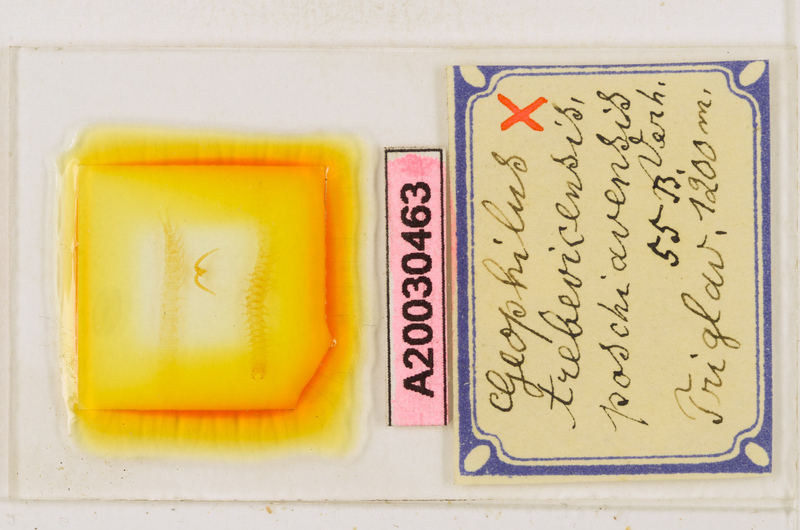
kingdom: Animalia
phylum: Arthropoda
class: Chilopoda
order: Geophilomorpha
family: Geophilidae
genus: Clinopodes
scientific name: Clinopodes trebevicensis
